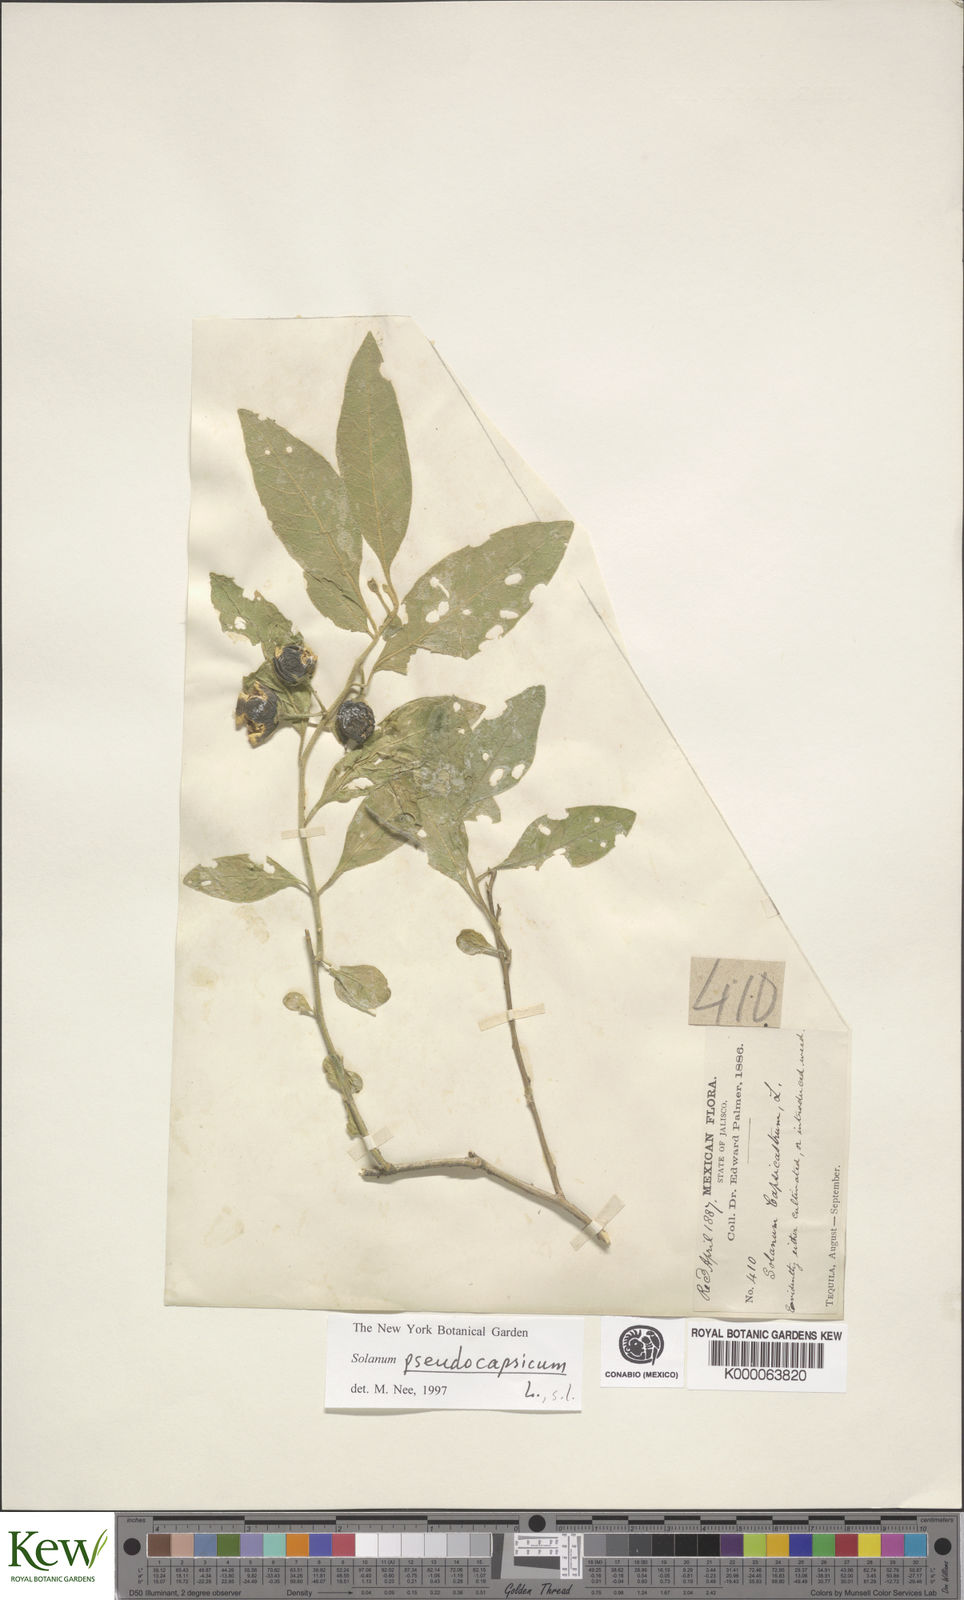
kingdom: Plantae
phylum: Tracheophyta
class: Magnoliopsida
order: Solanales
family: Solanaceae
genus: Solanum
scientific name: Solanum pseudocapsicum
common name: Jerusalem cherry
